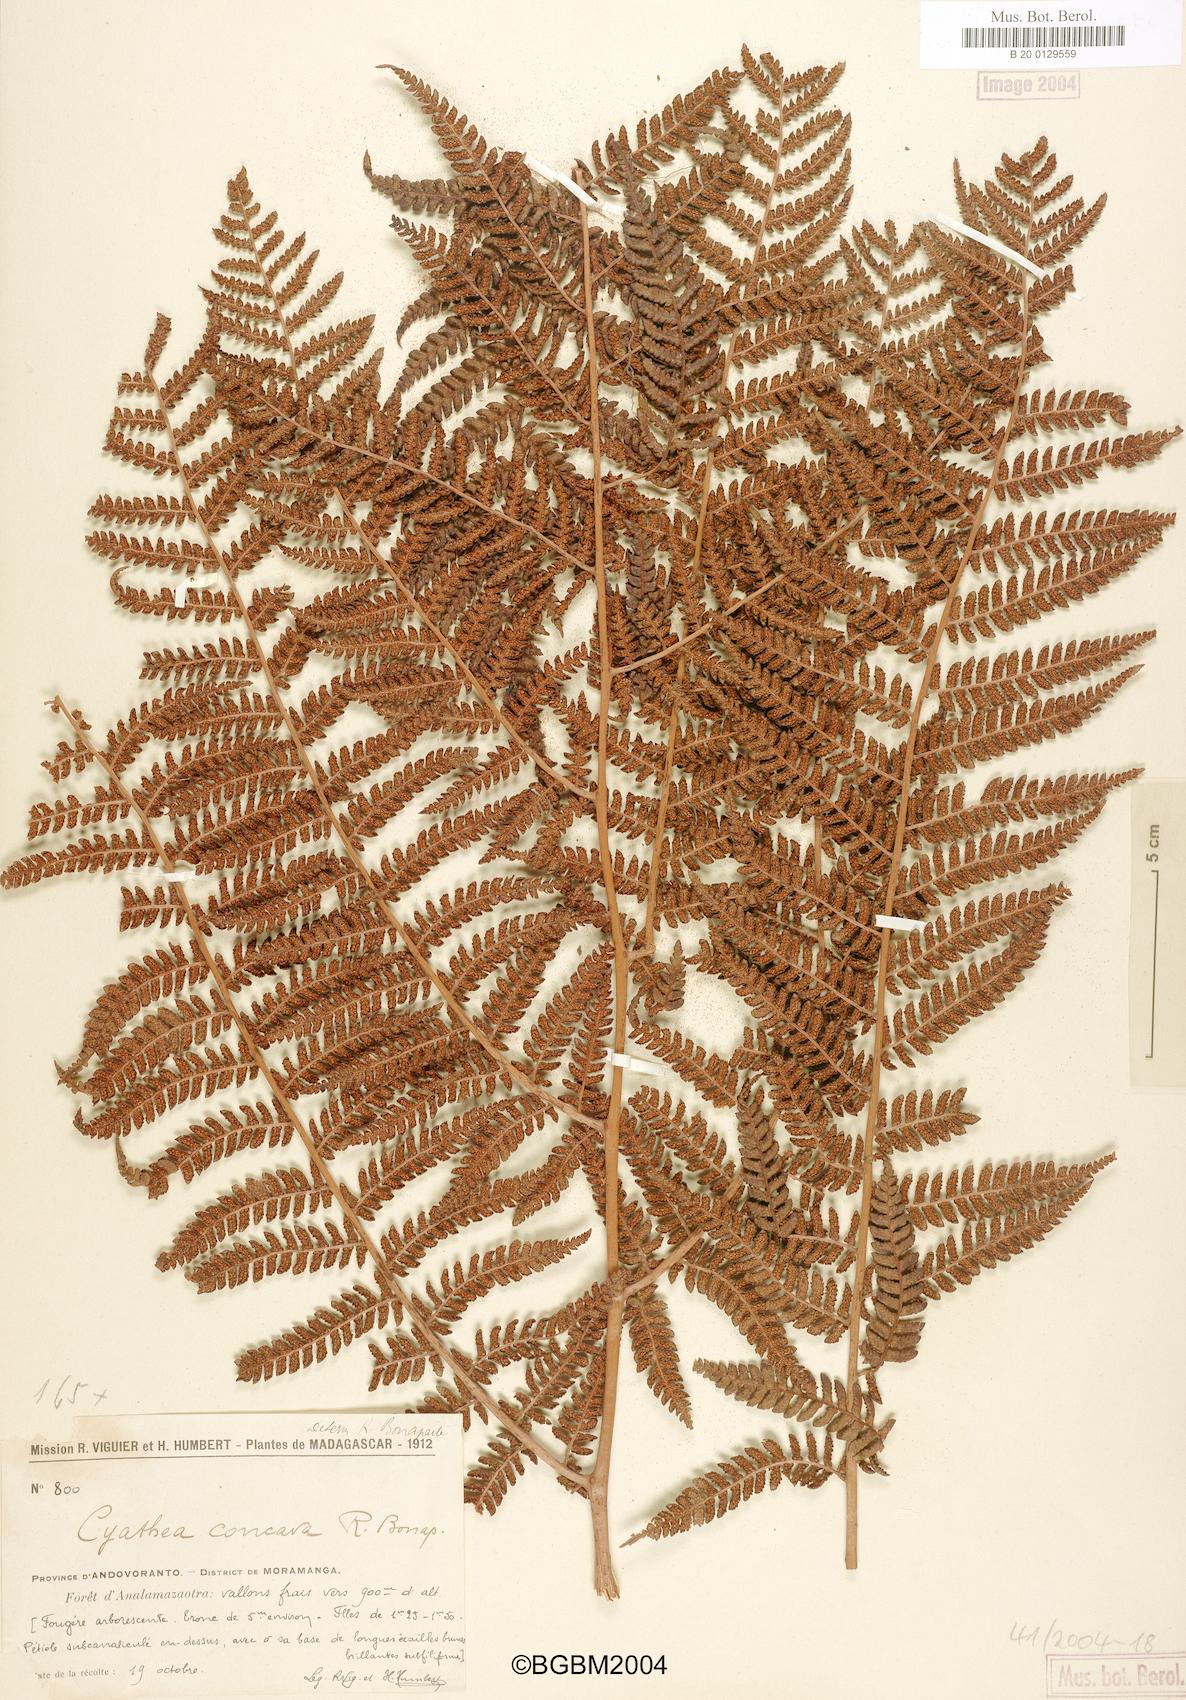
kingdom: Plantae
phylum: Tracheophyta
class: Polypodiopsida
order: Cyatheales
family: Cyatheaceae
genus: Alsophila
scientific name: Alsophila hyacinthei
